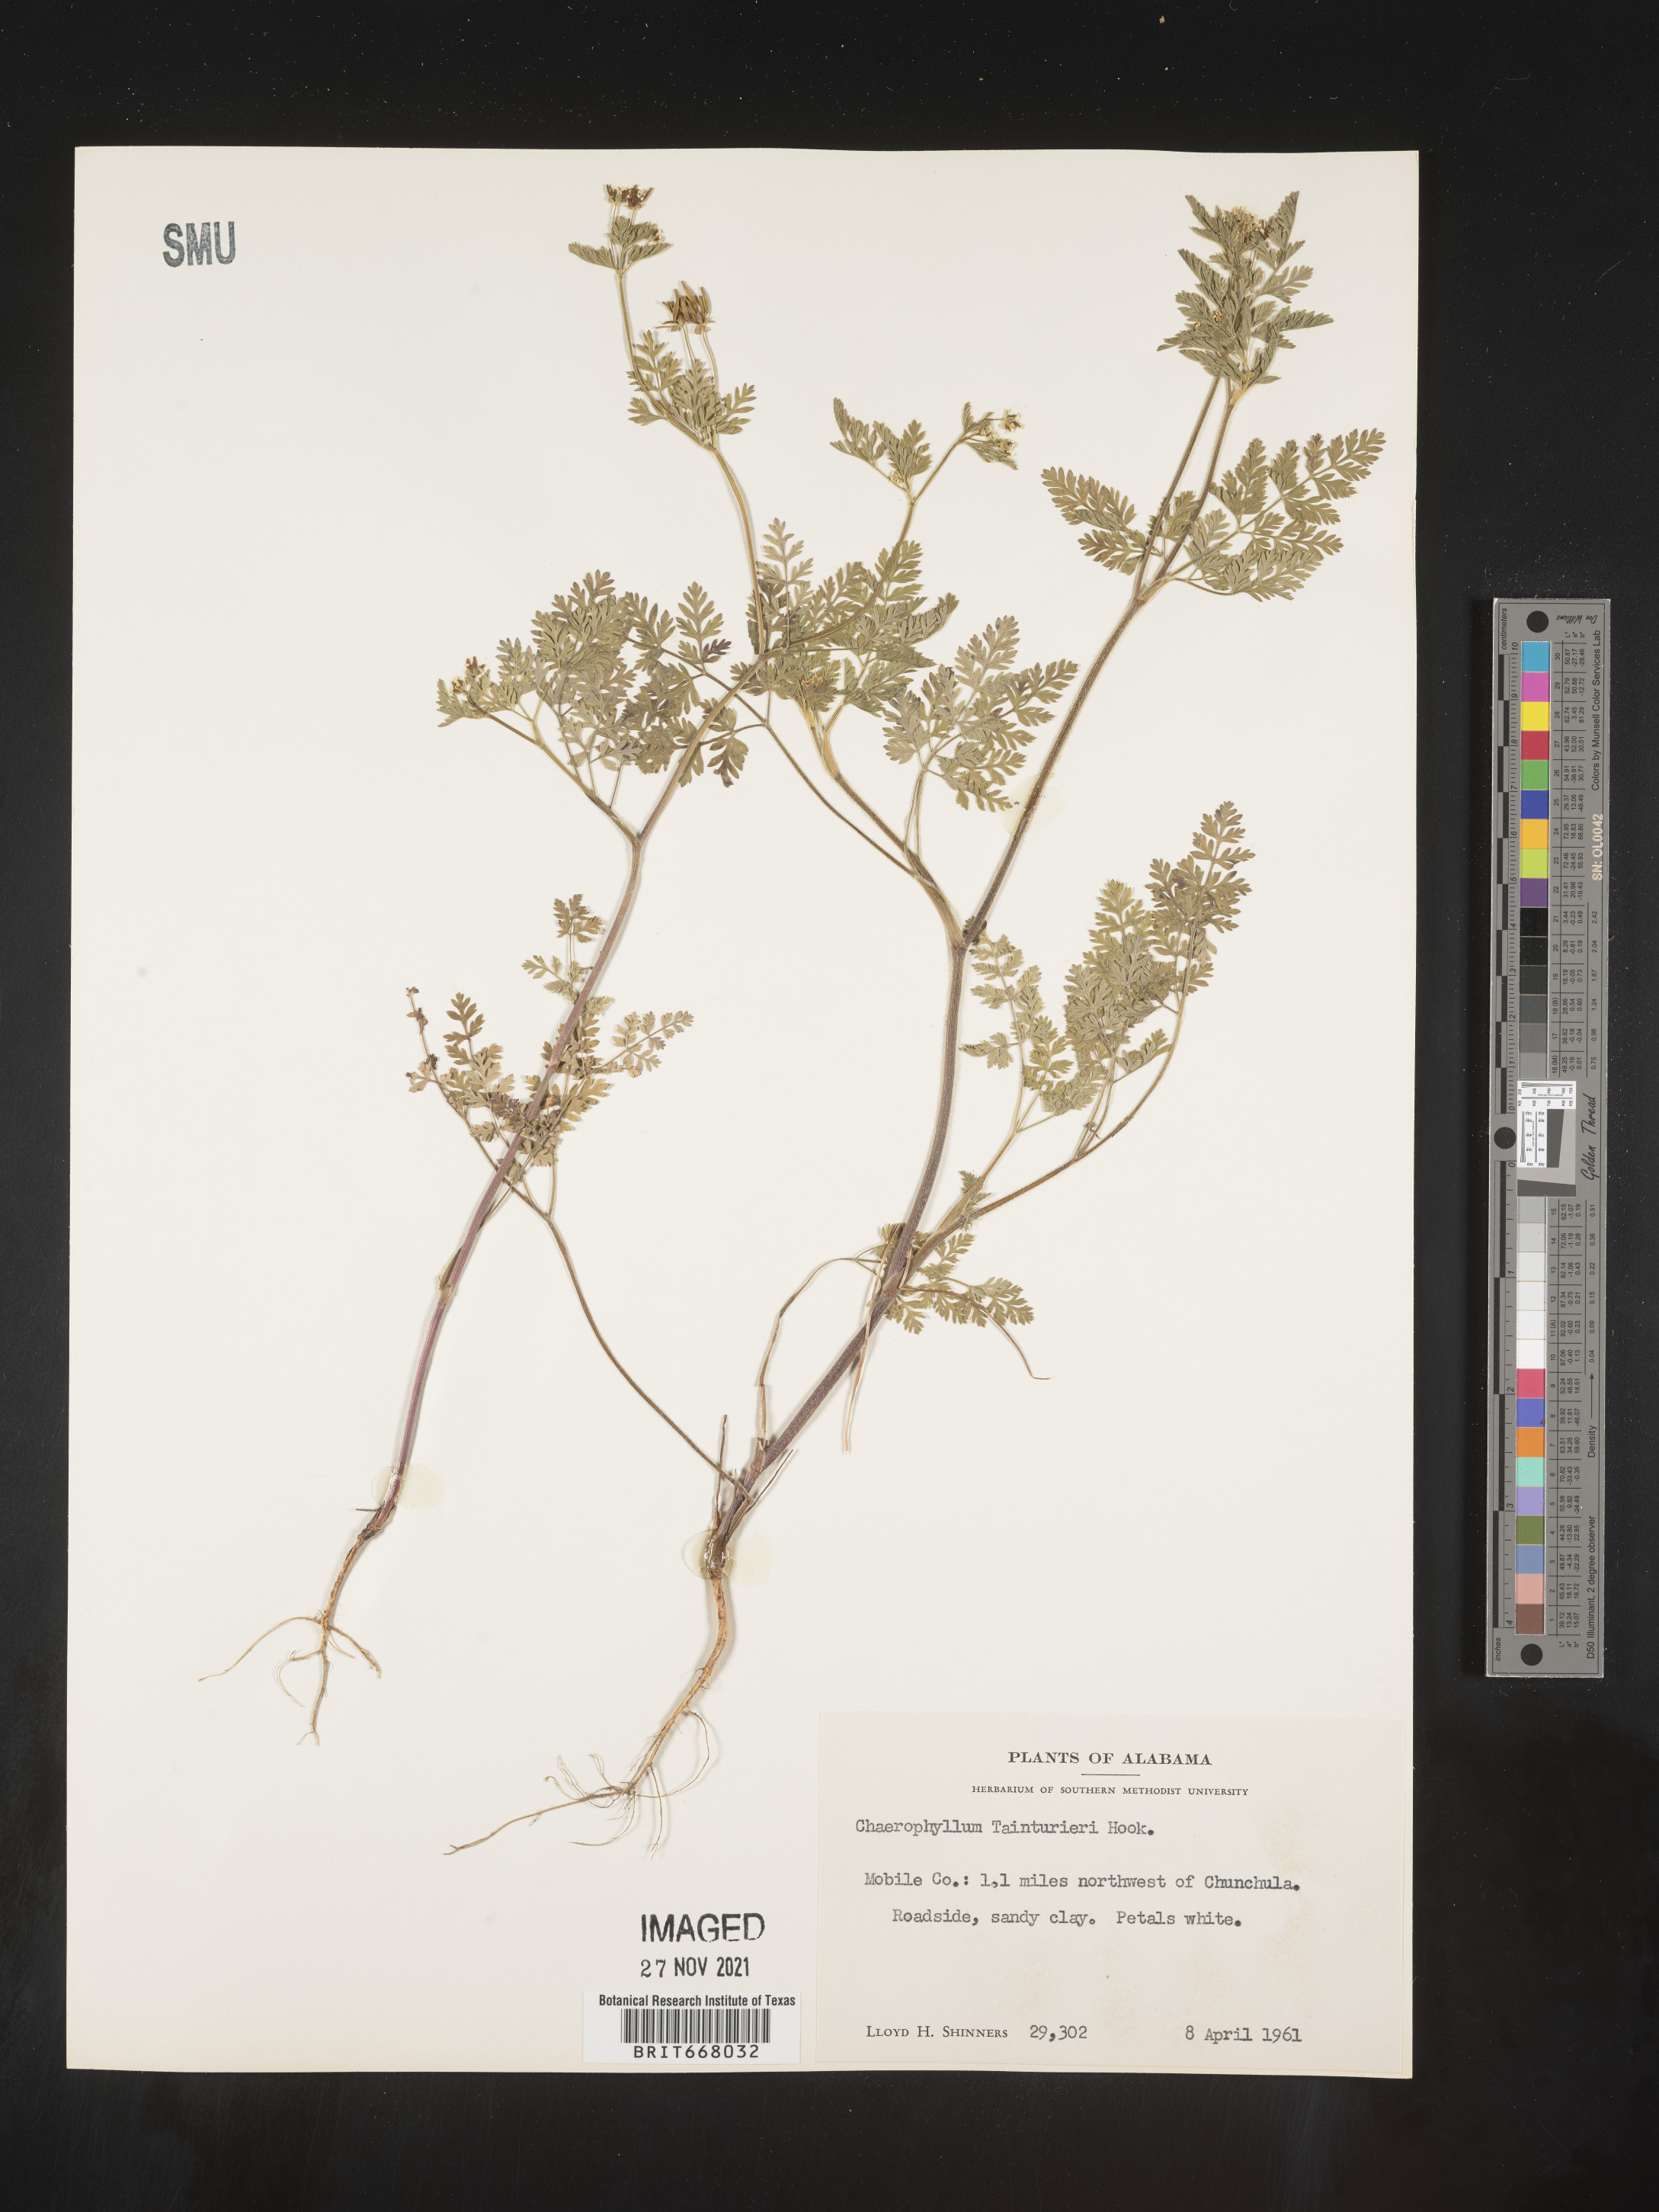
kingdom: Plantae
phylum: Tracheophyta
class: Magnoliopsida
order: Apiales
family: Apiaceae
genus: Chaerophyllum
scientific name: Chaerophyllum tainturieri
